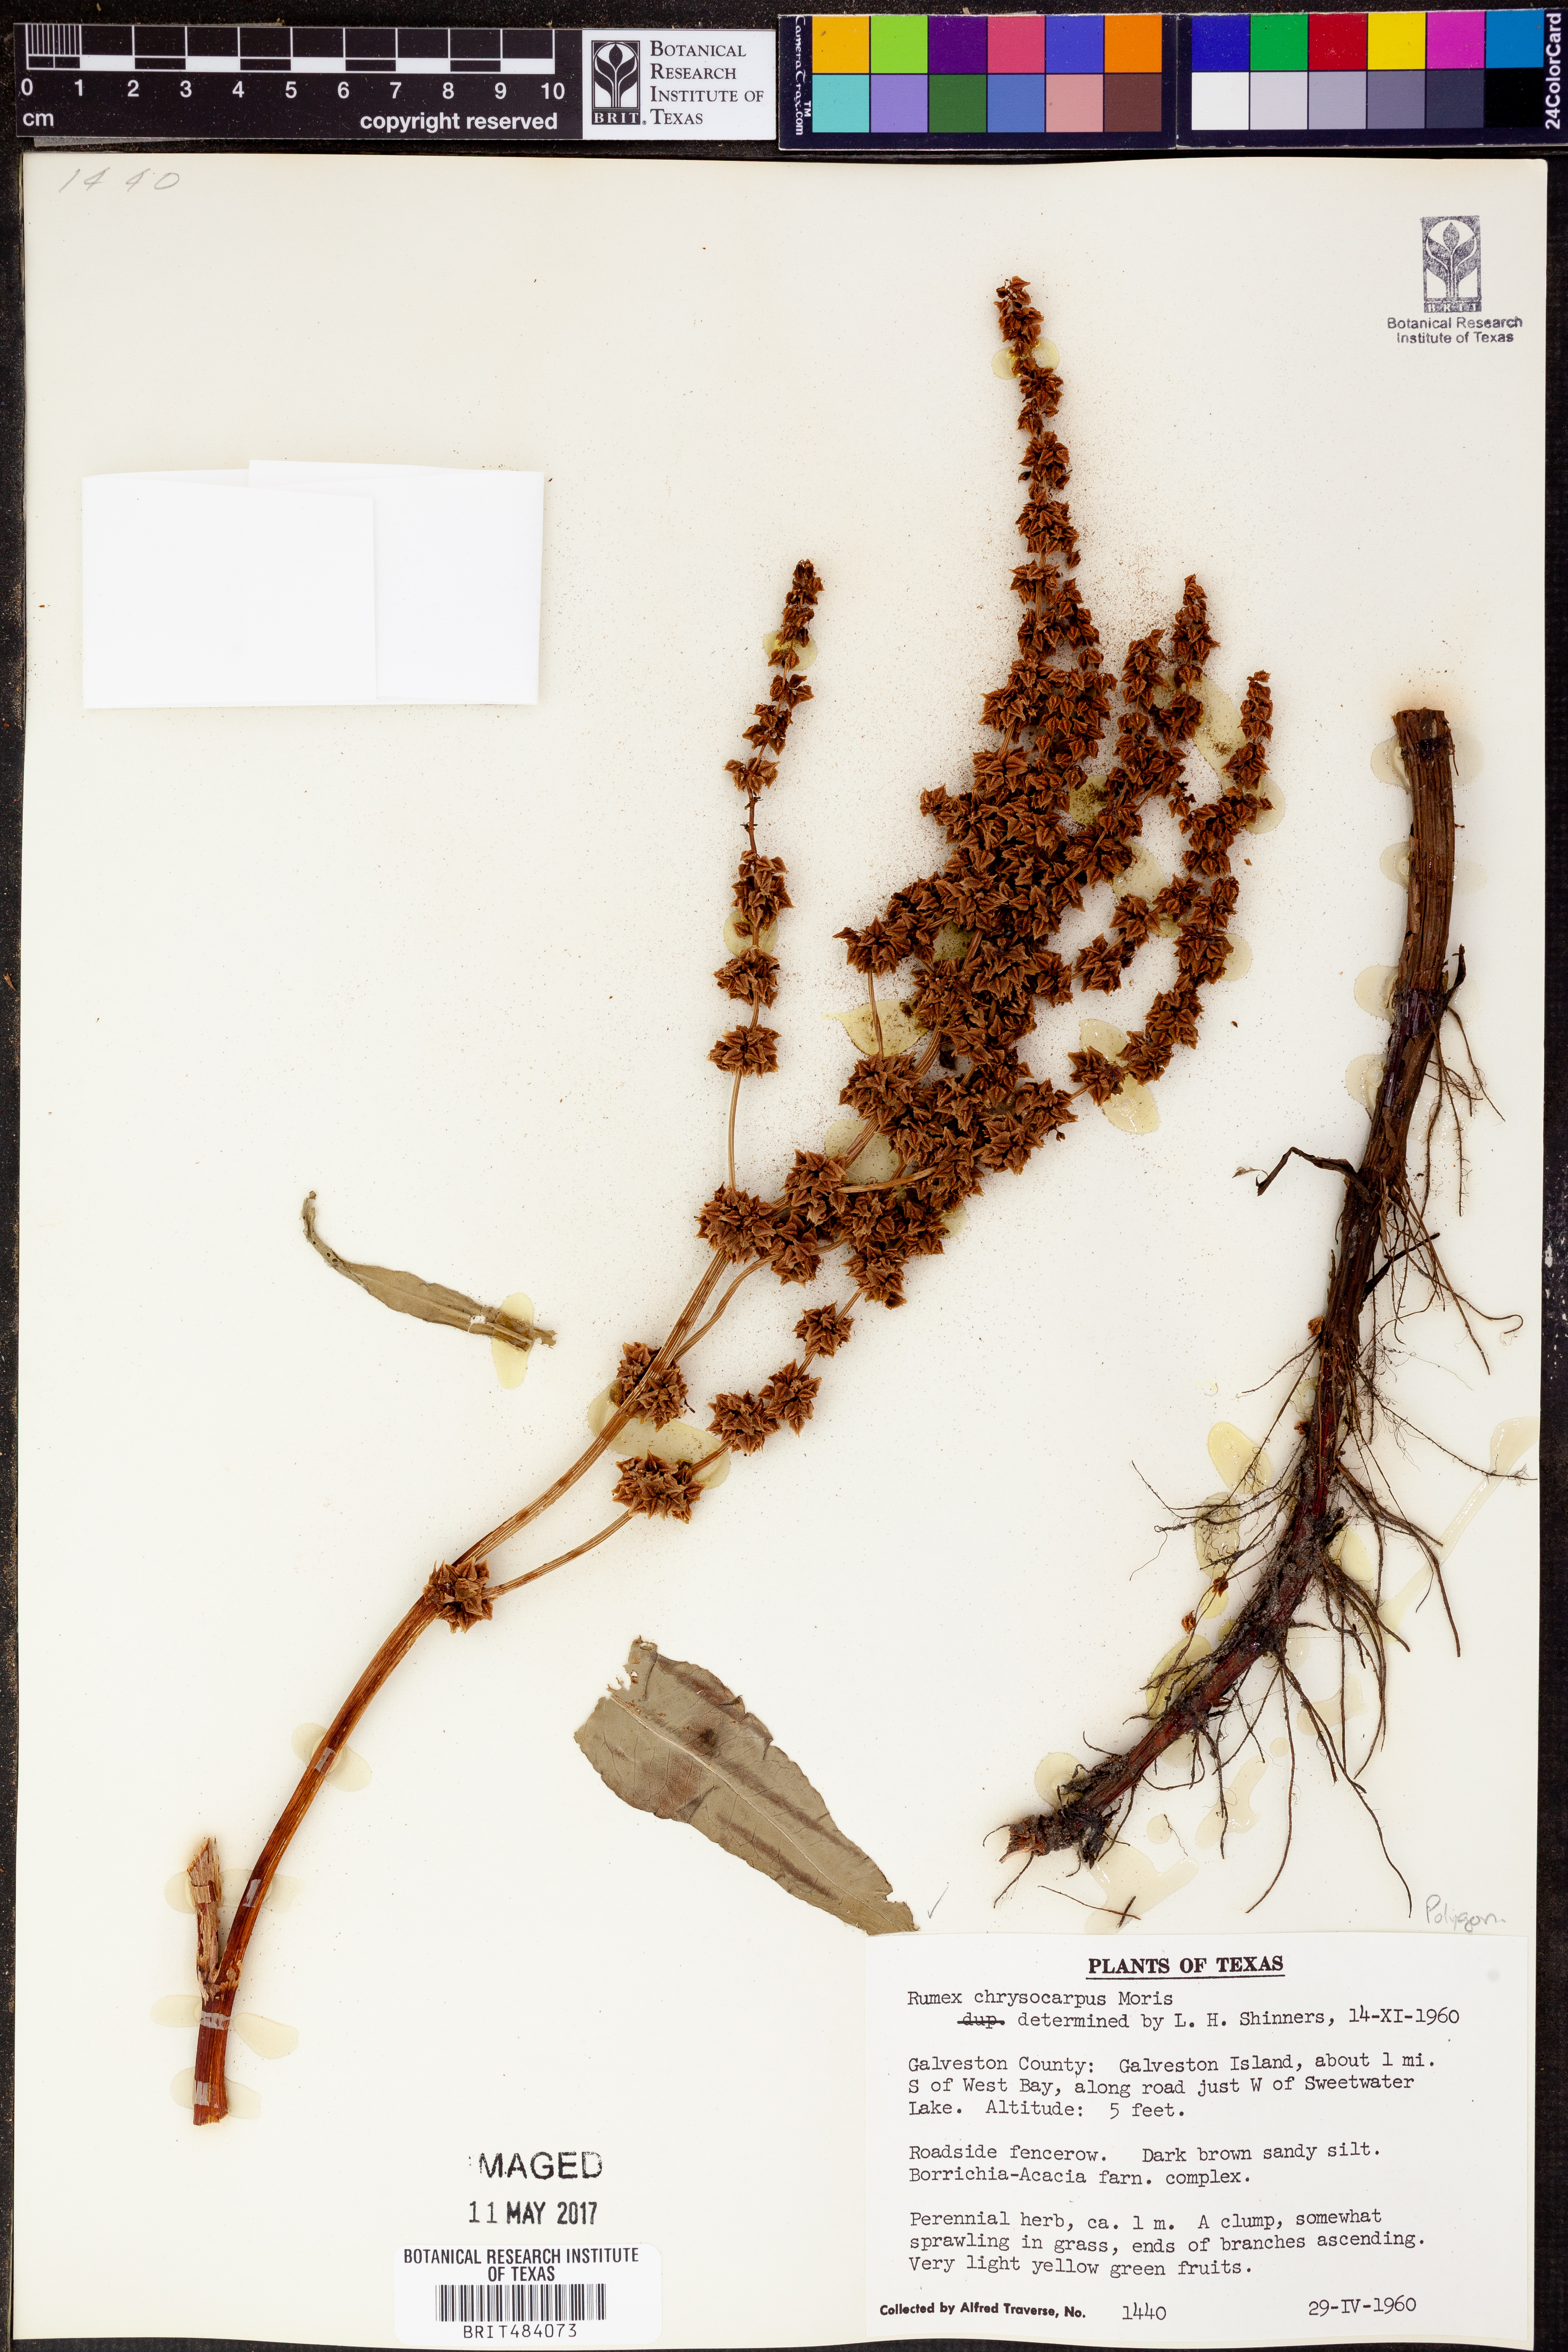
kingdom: Plantae
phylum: Tracheophyta
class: Magnoliopsida
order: Caryophyllales
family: Polygonaceae
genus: Rumex
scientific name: Rumex chrysocarpus
